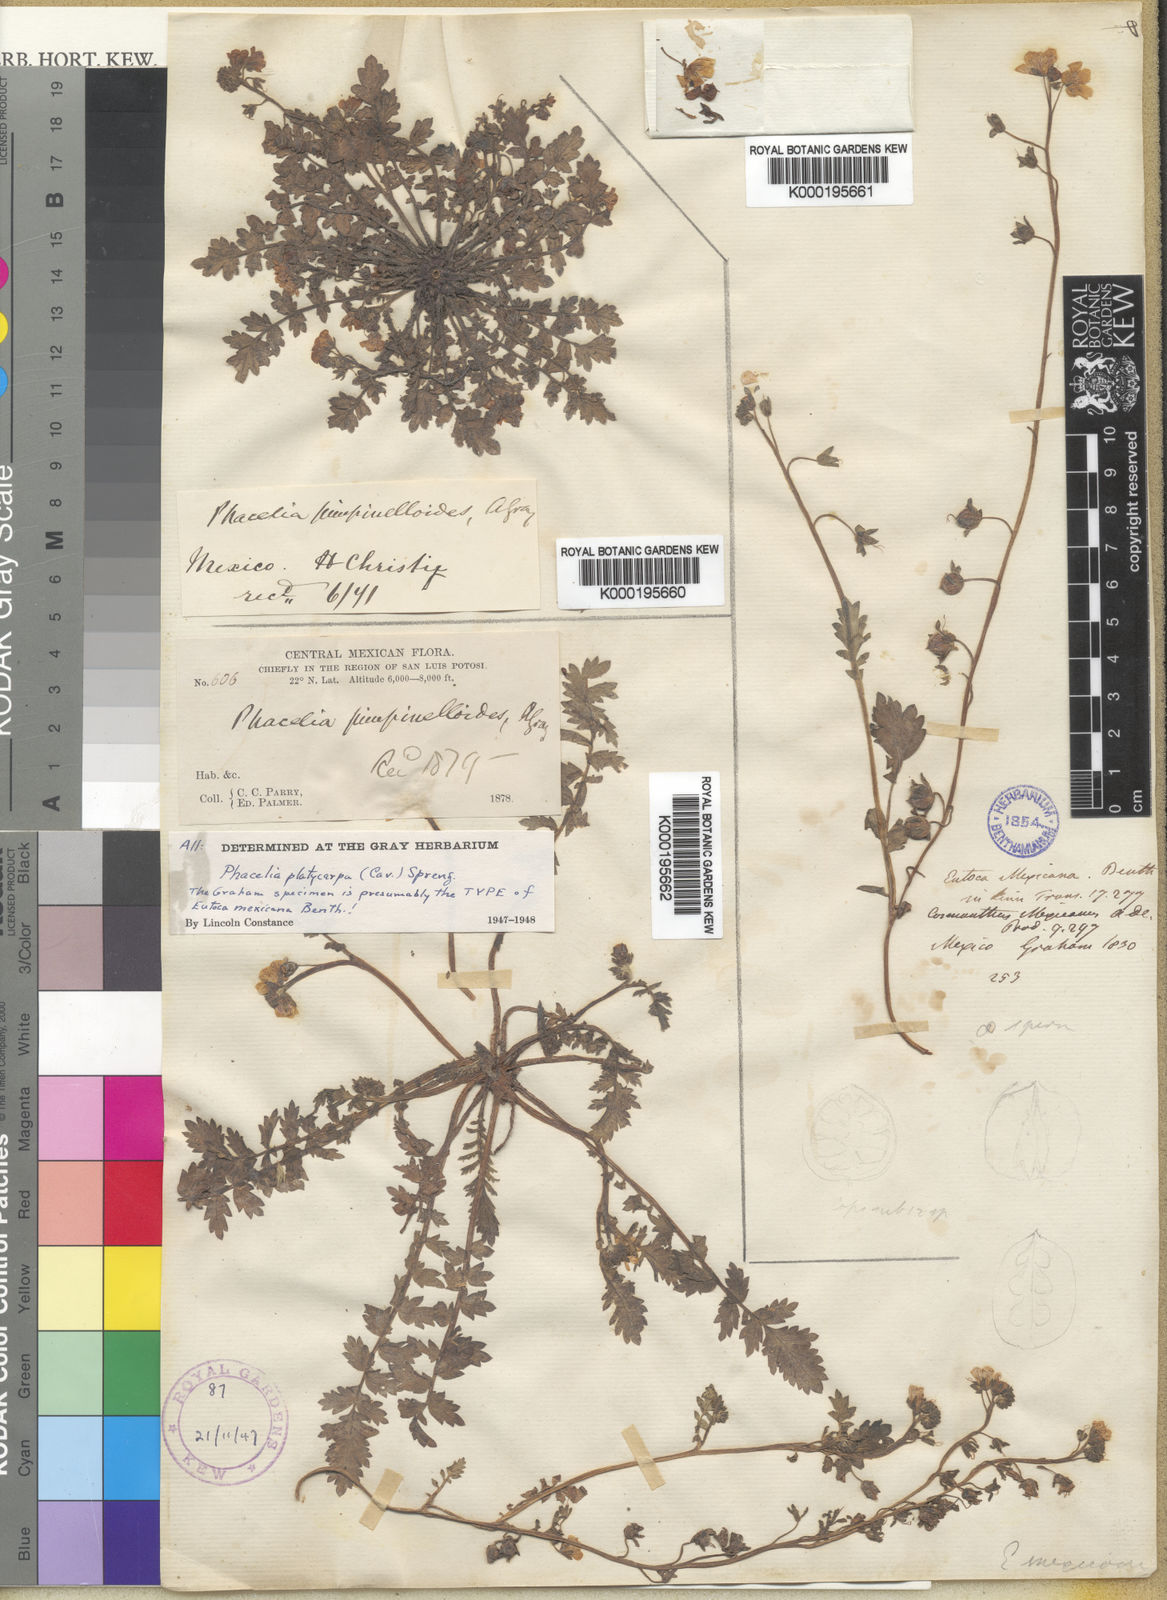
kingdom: Plantae
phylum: Tracheophyta
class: Magnoliopsida
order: Boraginales
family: Hydrophyllaceae
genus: Phacelia
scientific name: Phacelia platycarpa
